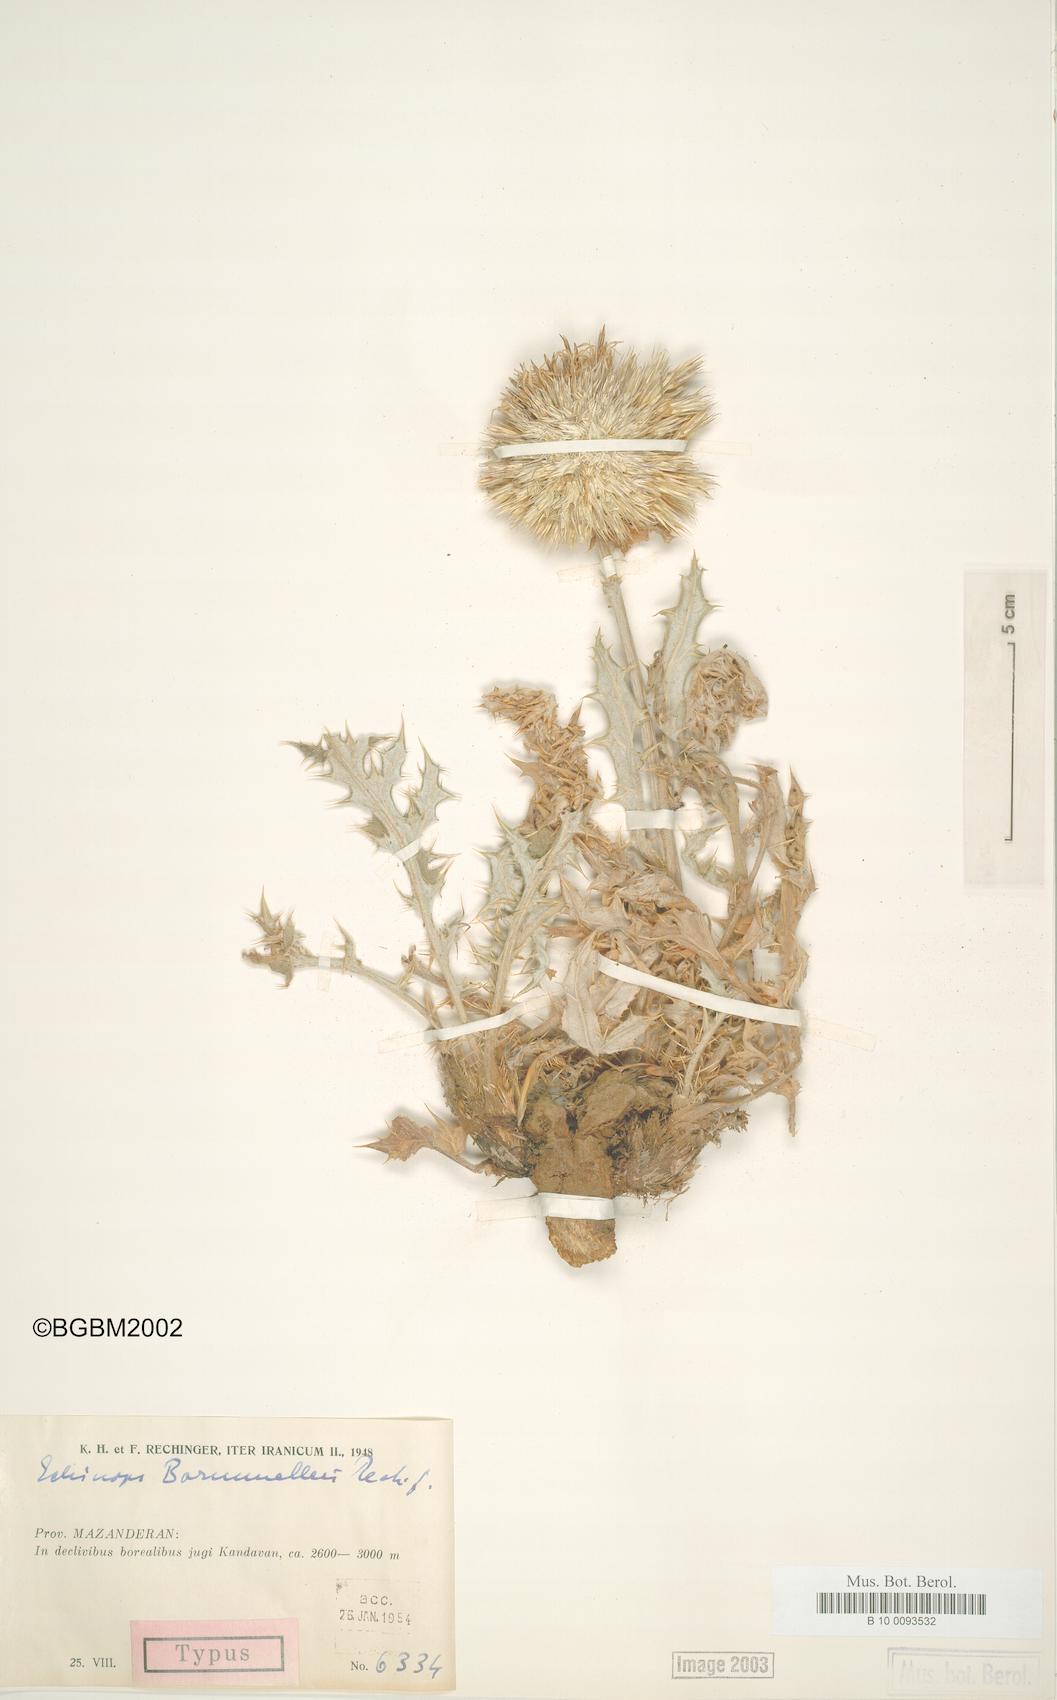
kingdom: Plantae
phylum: Tracheophyta
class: Magnoliopsida
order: Asterales
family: Asteraceae
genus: Echinops
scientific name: Echinops pungens
